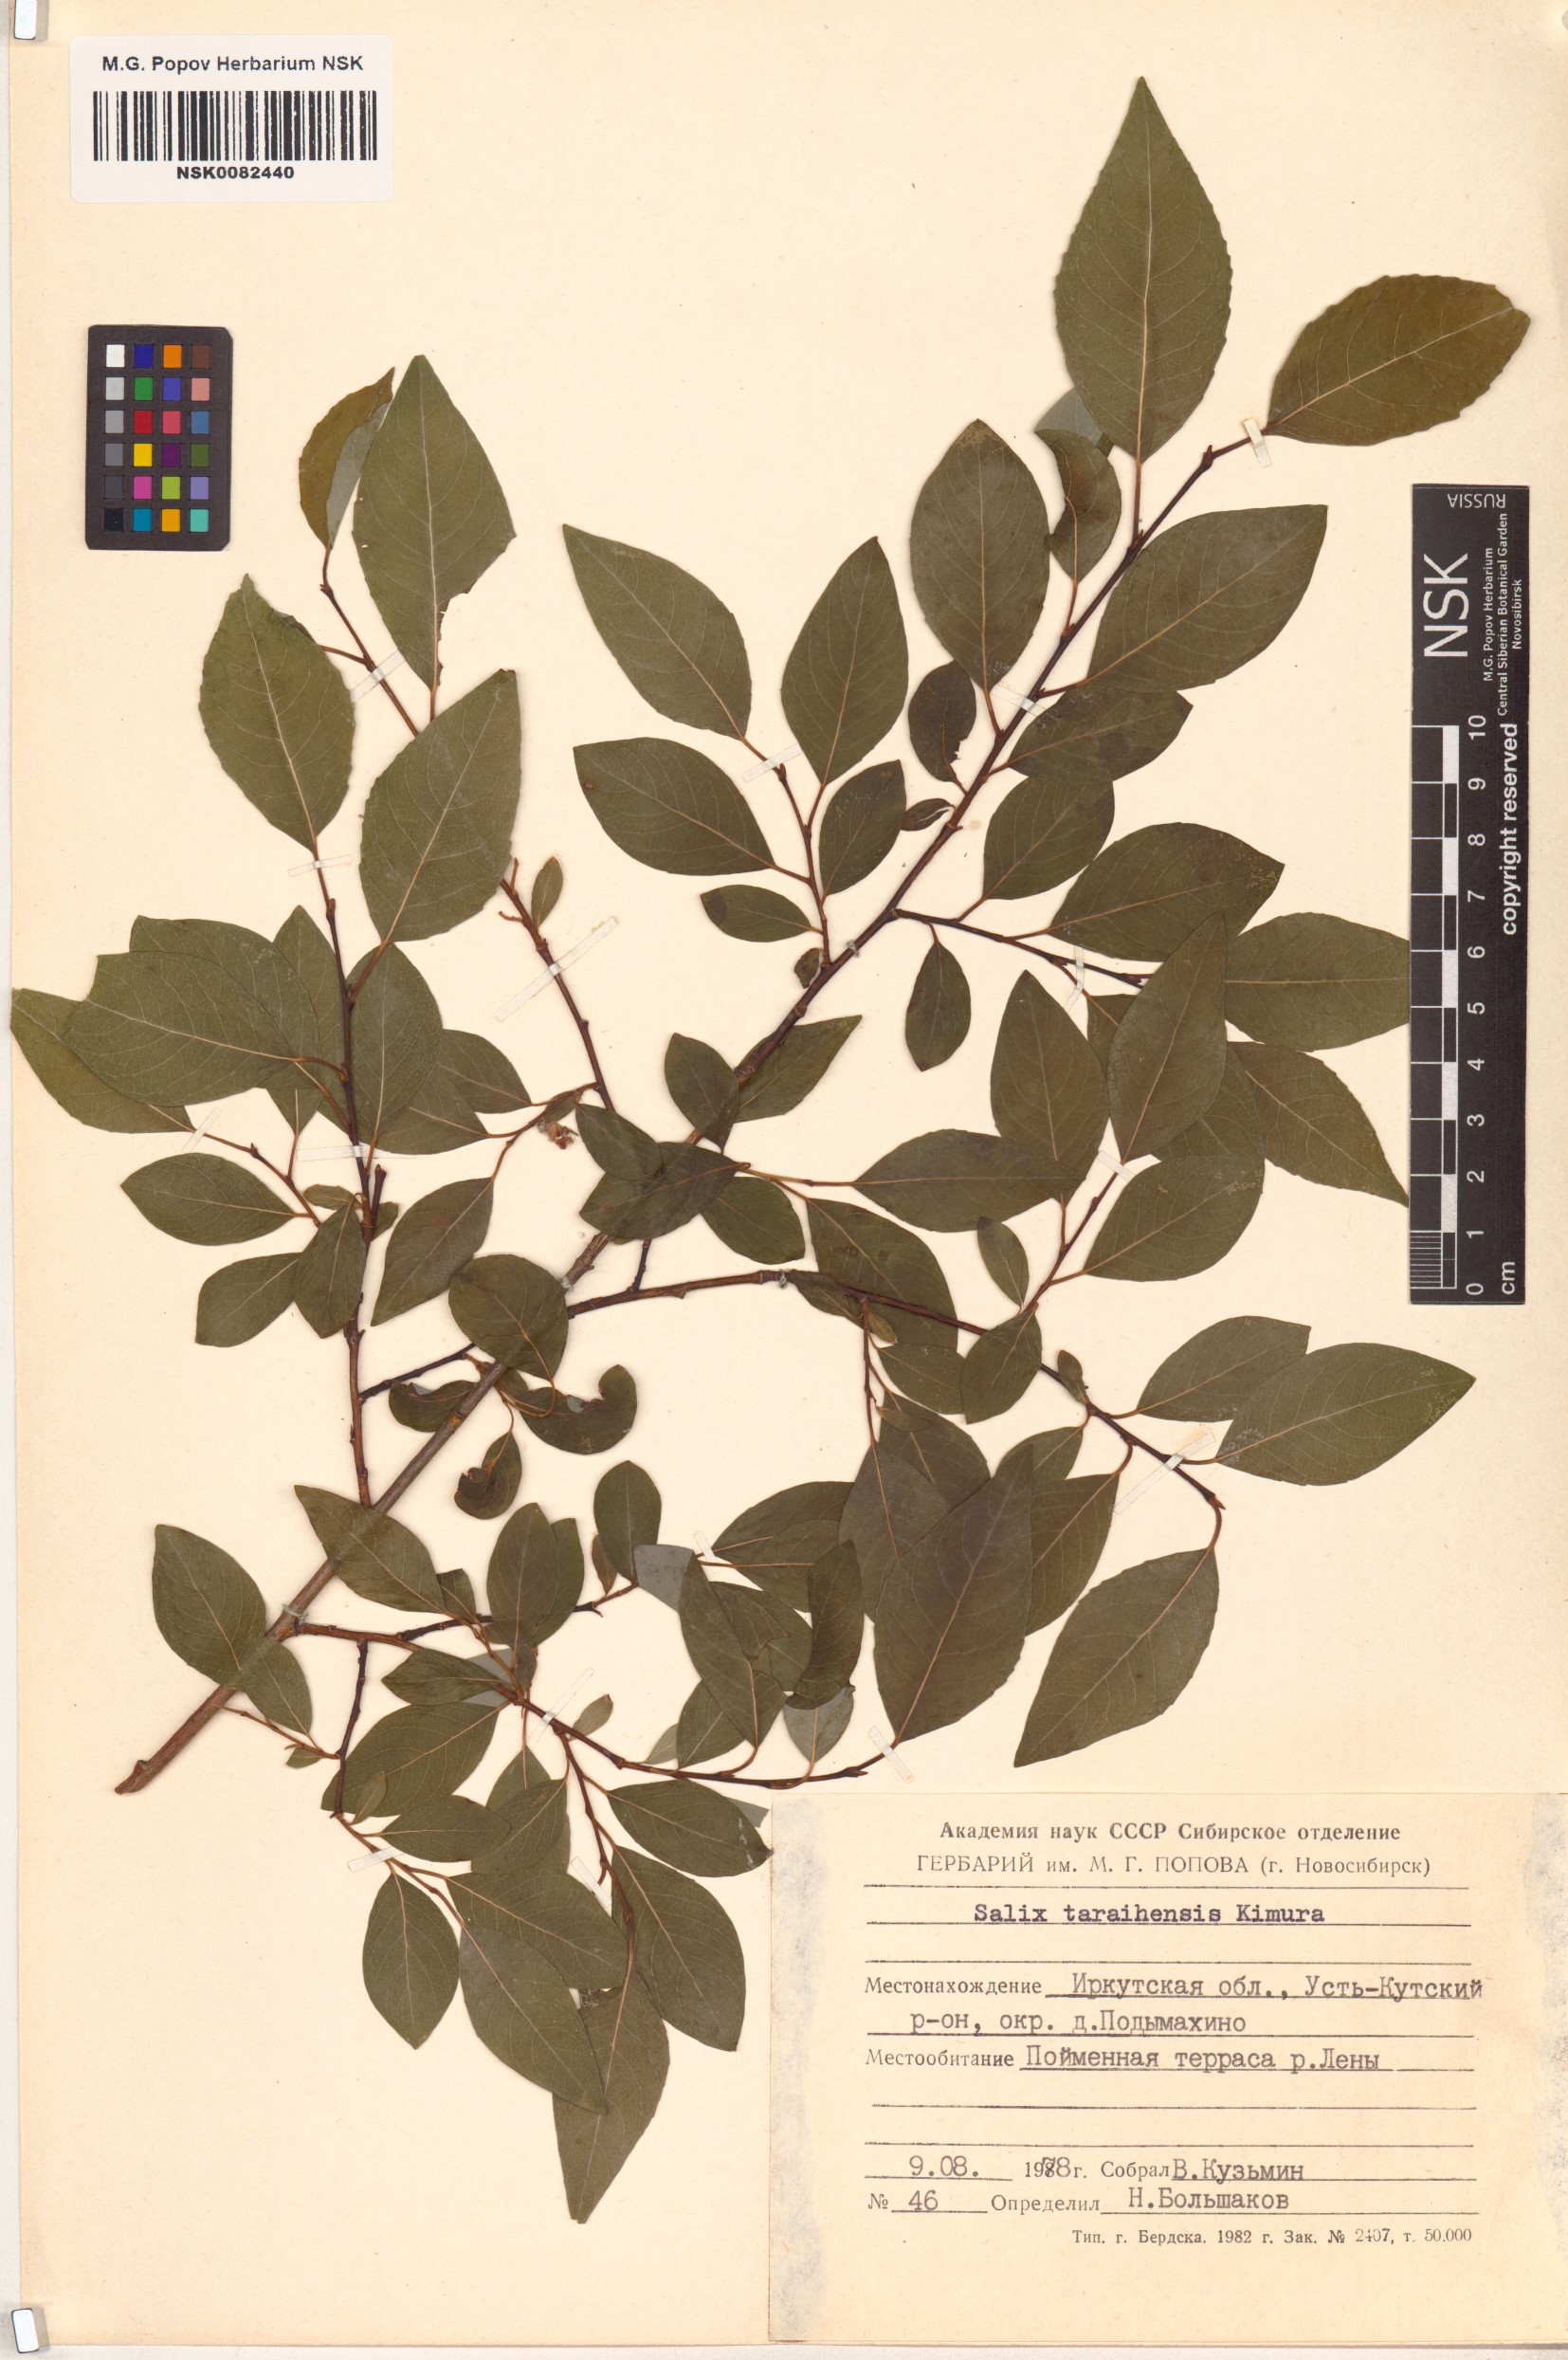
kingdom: Plantae
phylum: Tracheophyta
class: Magnoliopsida
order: Malpighiales
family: Salicaceae
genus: Salix
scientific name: Salix taraikensis
